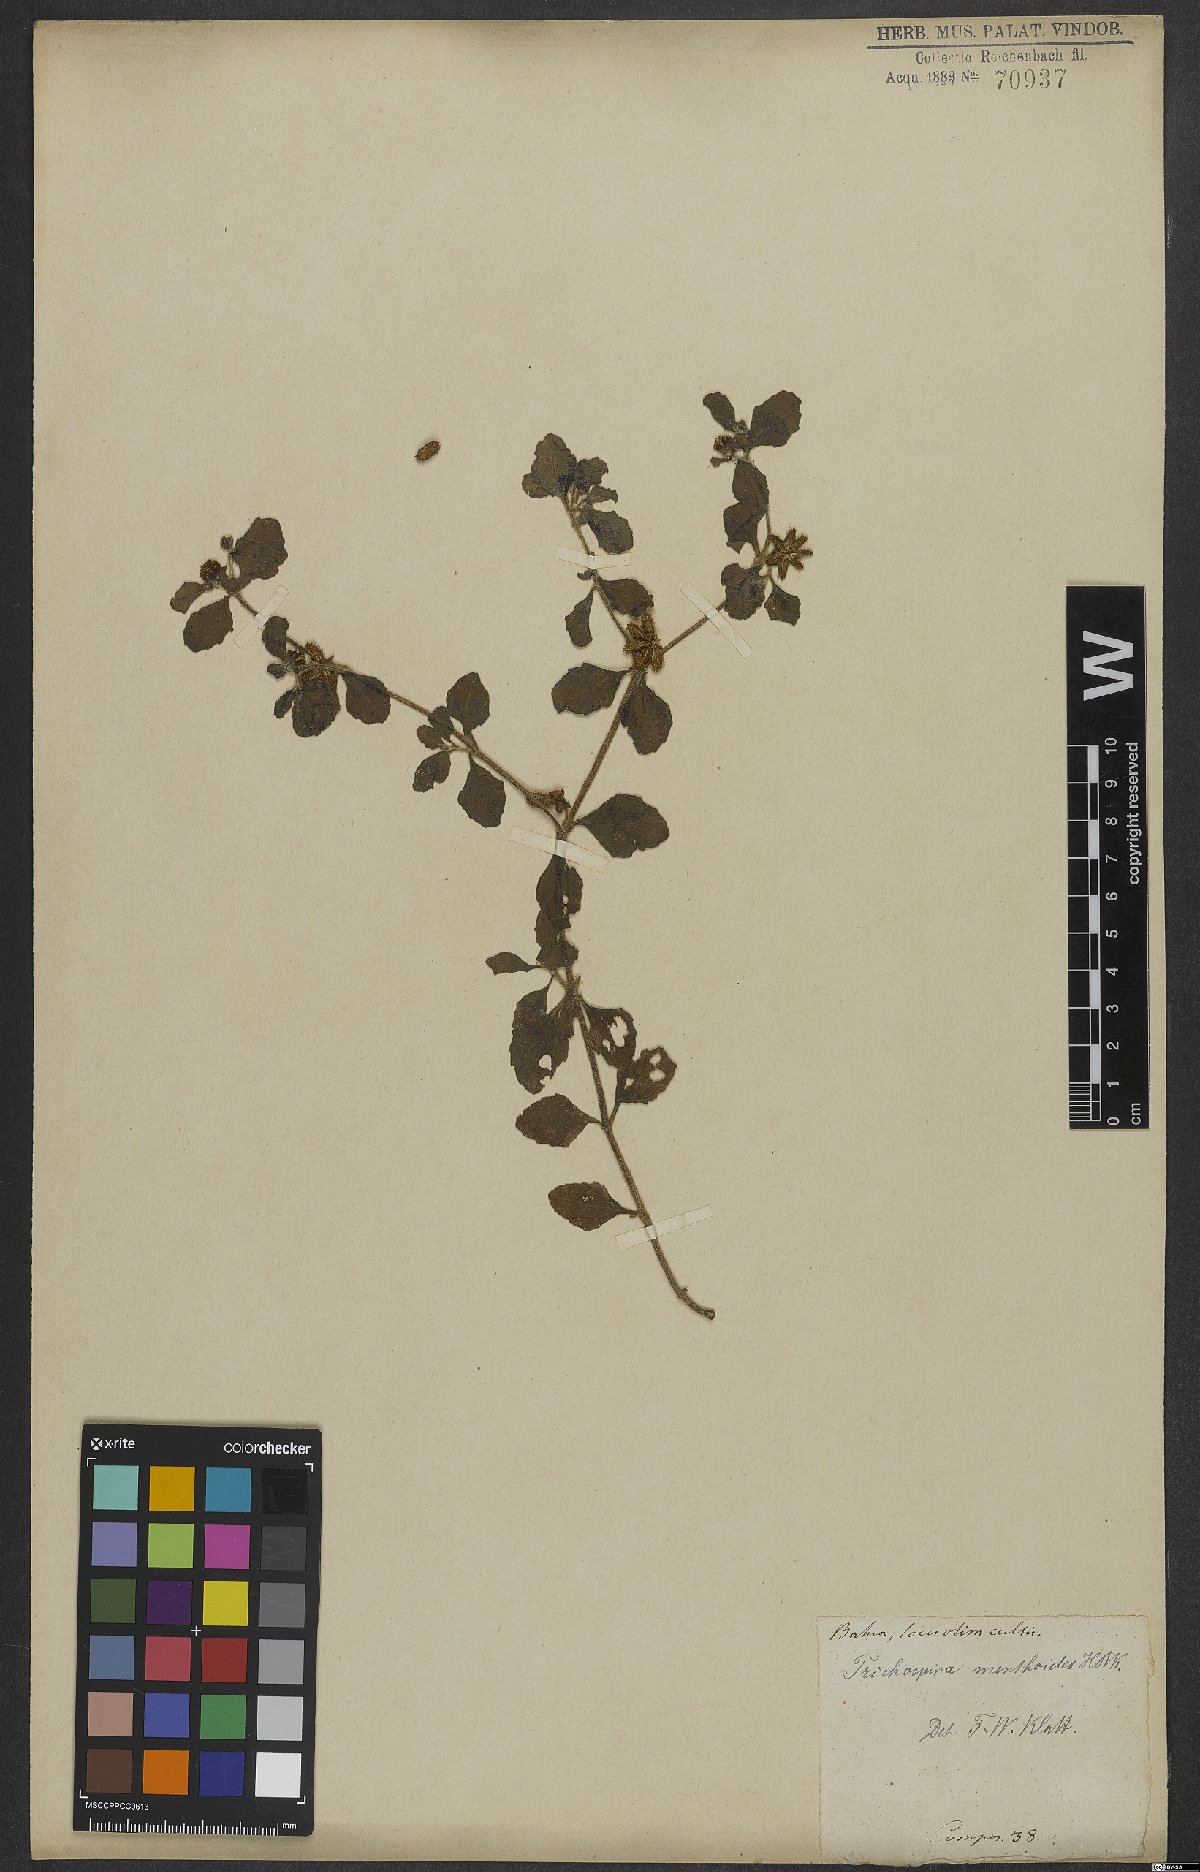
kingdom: Chromista
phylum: Ciliophora
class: Kinetofragminophora
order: Trichostomatida
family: Trichospiridae
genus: Trichospira
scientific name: Trichospira verticillata
